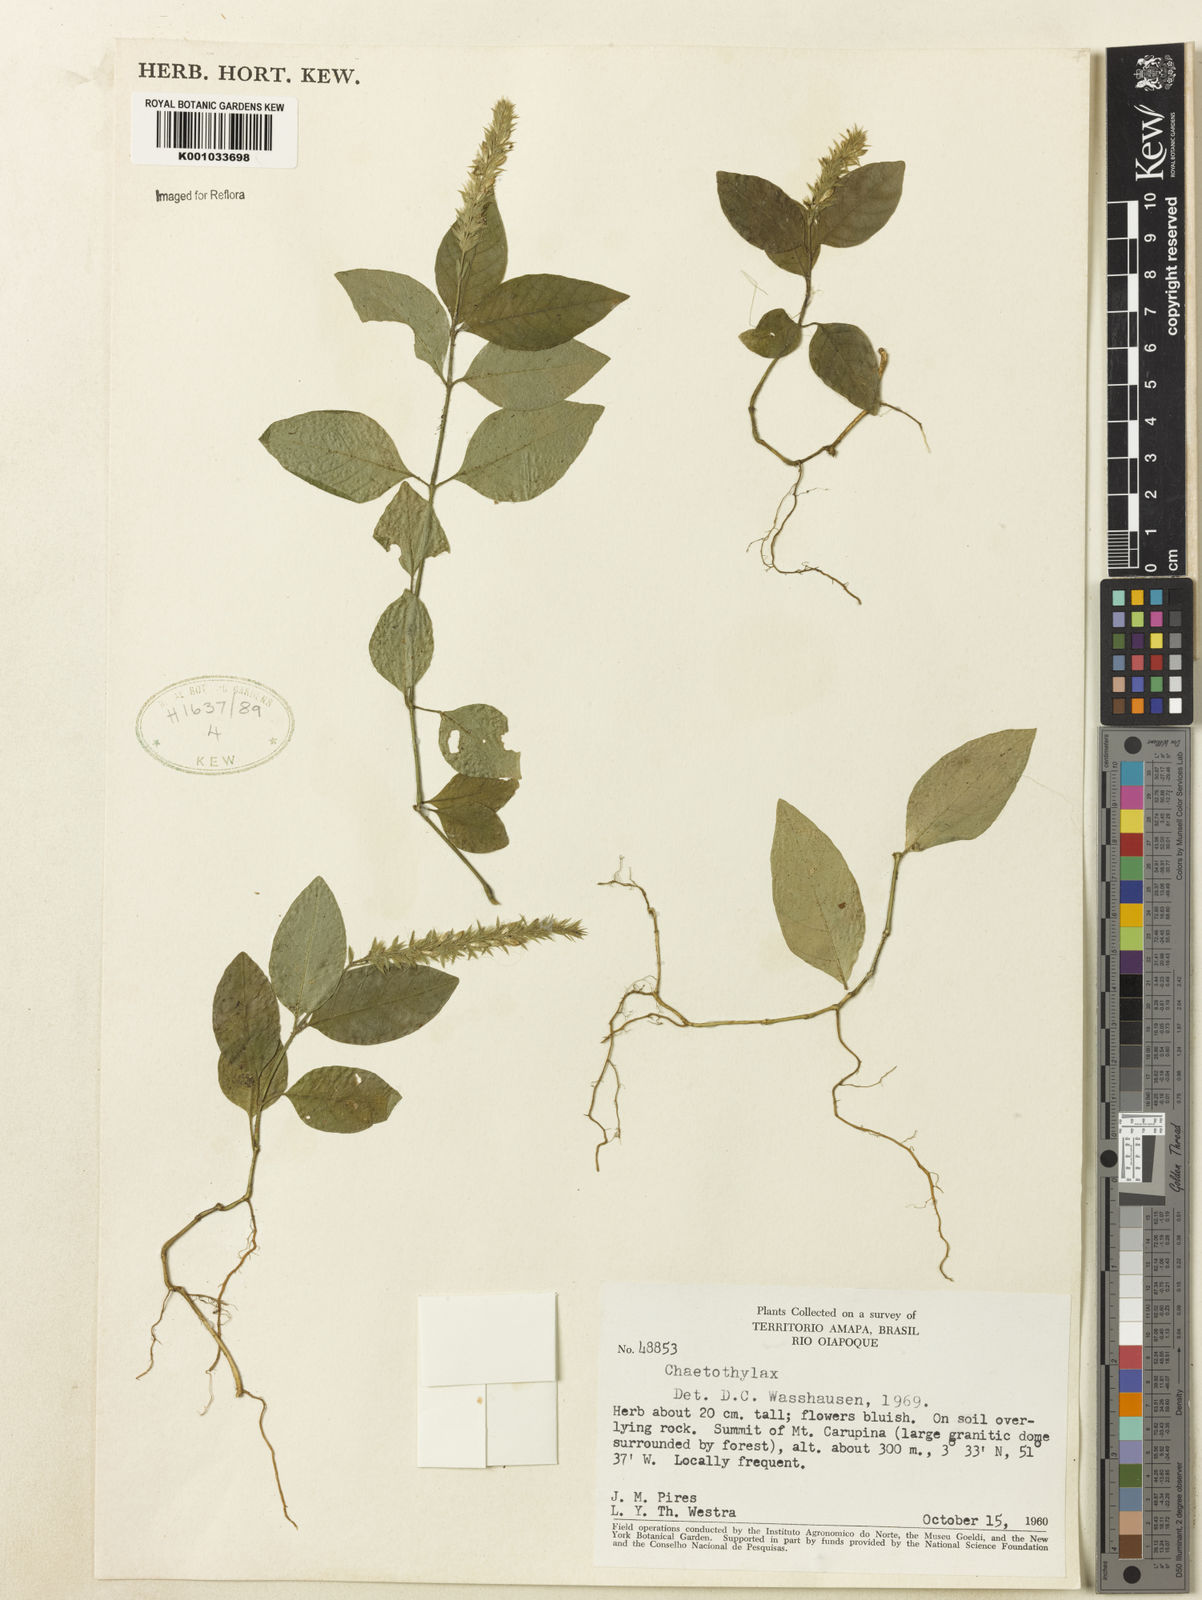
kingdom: Plantae
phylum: Tracheophyta
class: Magnoliopsida
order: Lamiales
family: Acanthaceae
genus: Justicia
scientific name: Justicia
